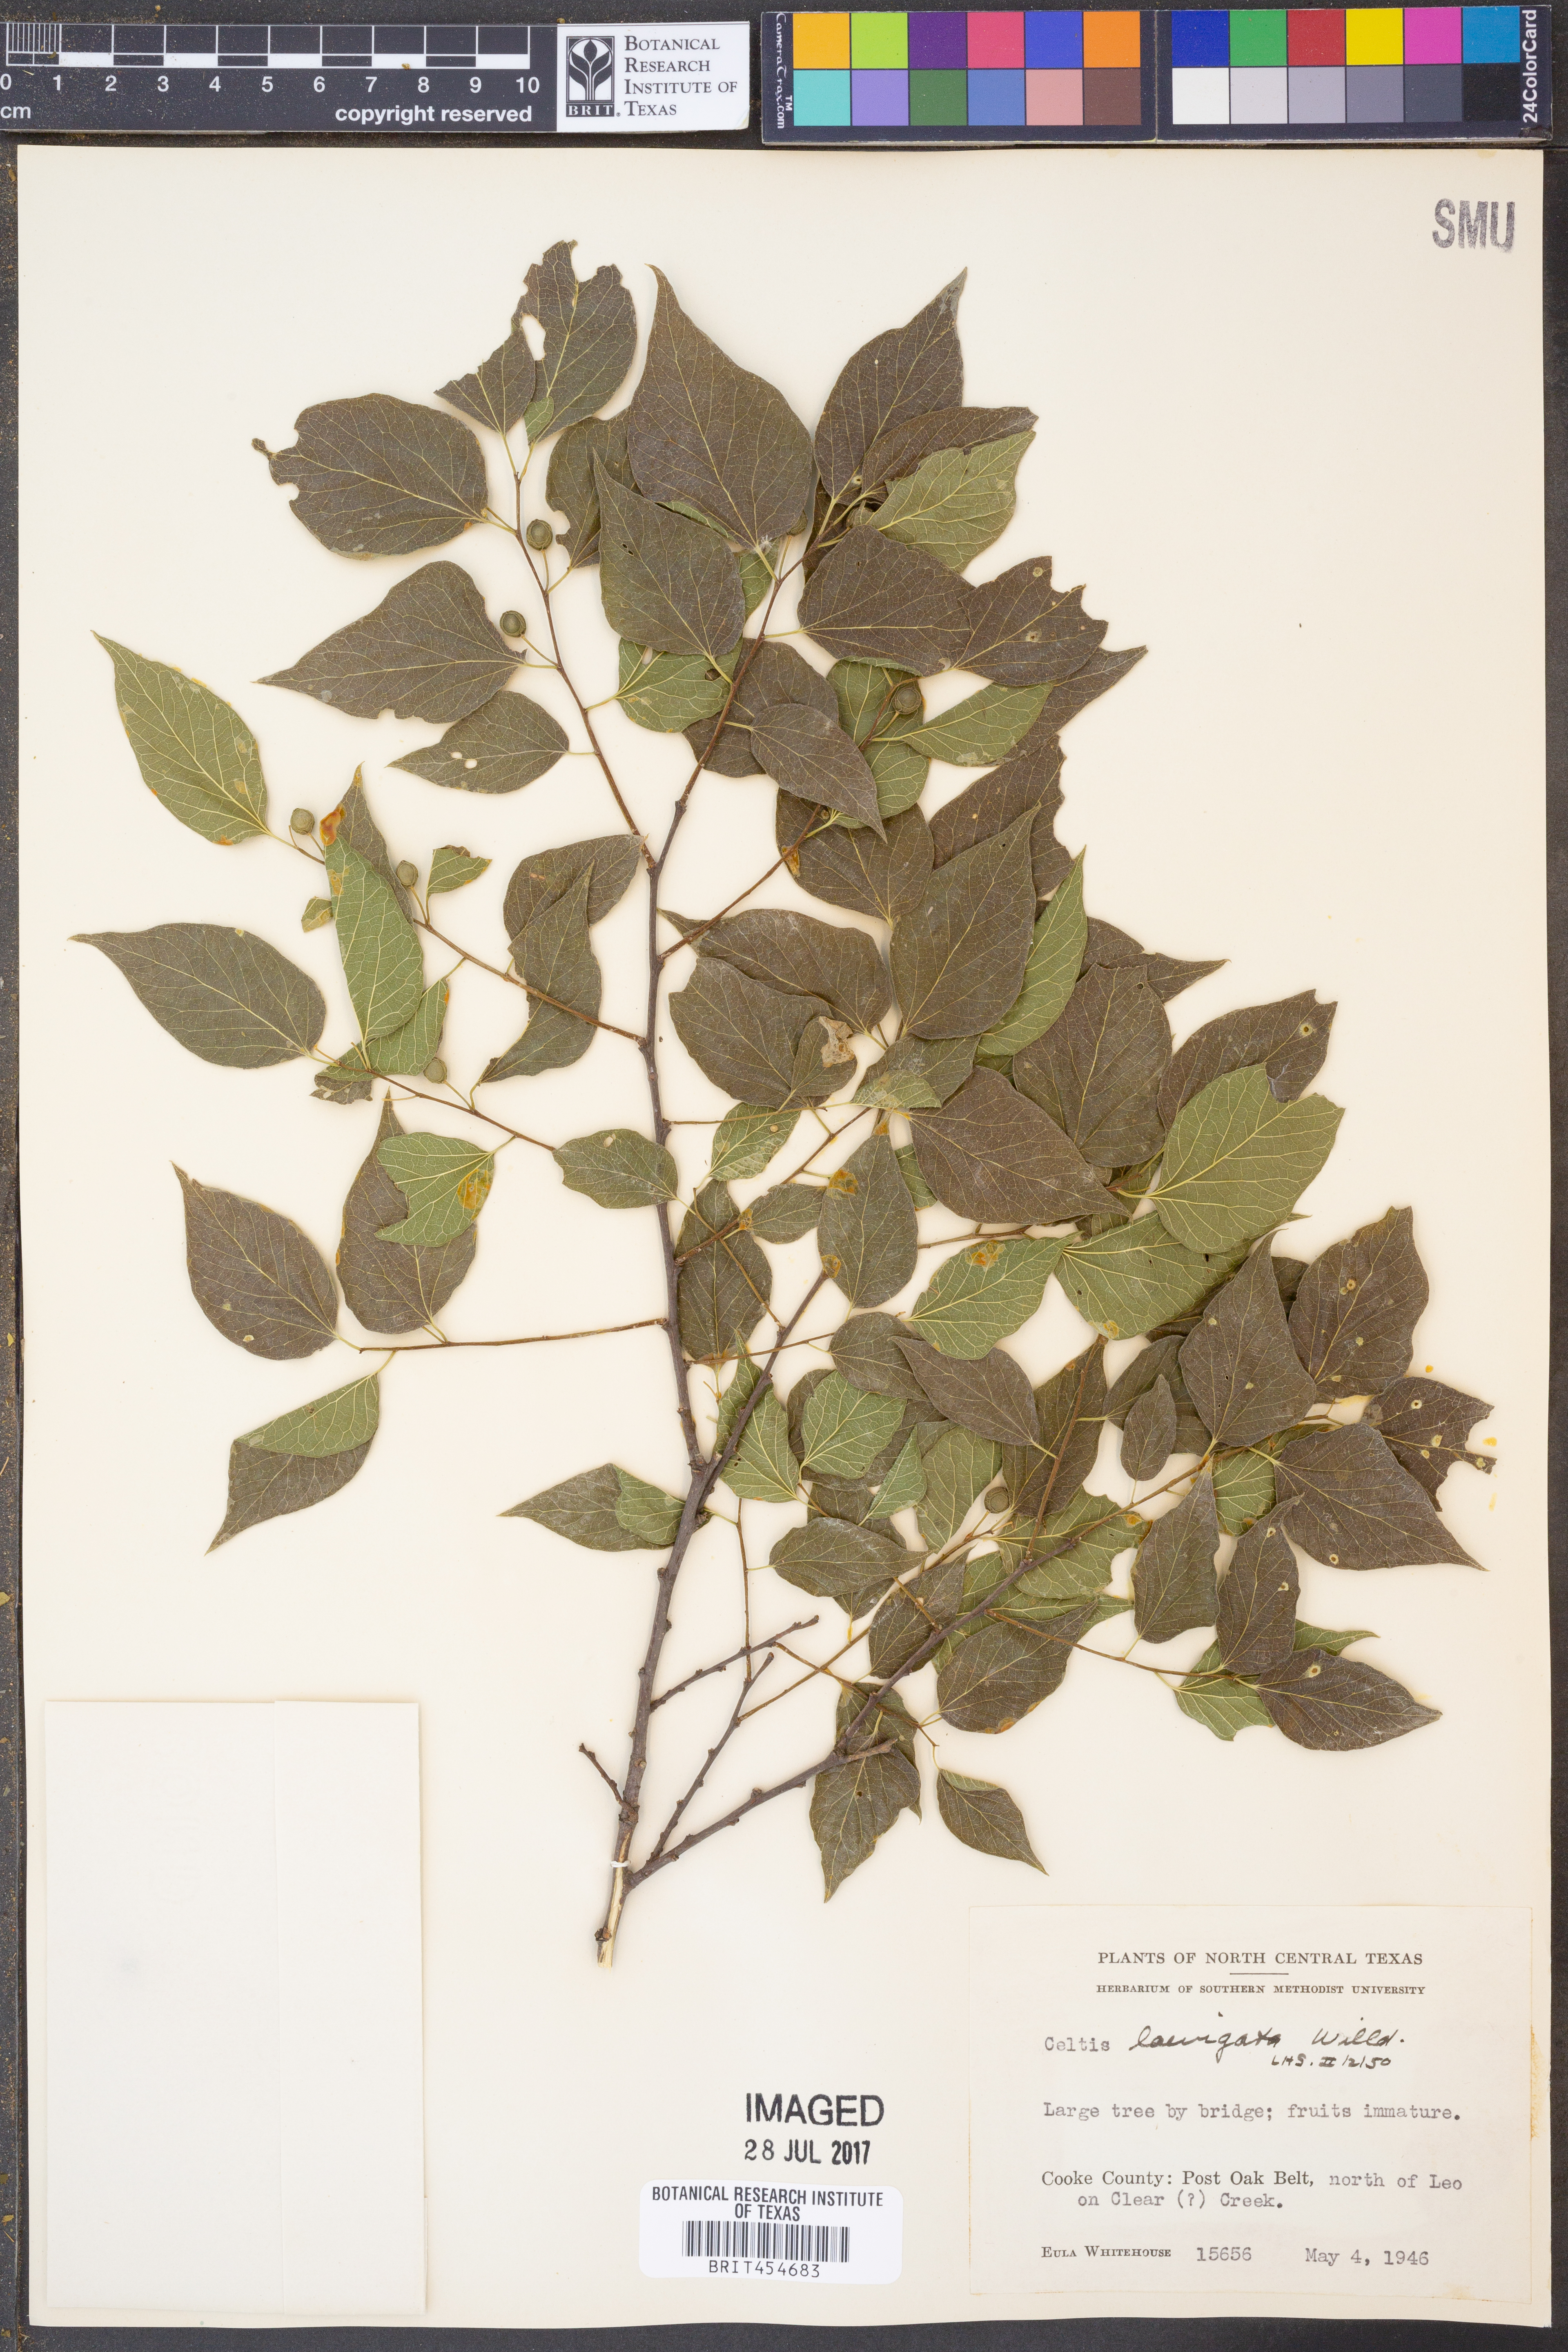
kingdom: Plantae
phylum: Tracheophyta
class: Magnoliopsida
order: Rosales
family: Cannabaceae
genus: Celtis
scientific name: Celtis laevigata
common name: Sugarberry
